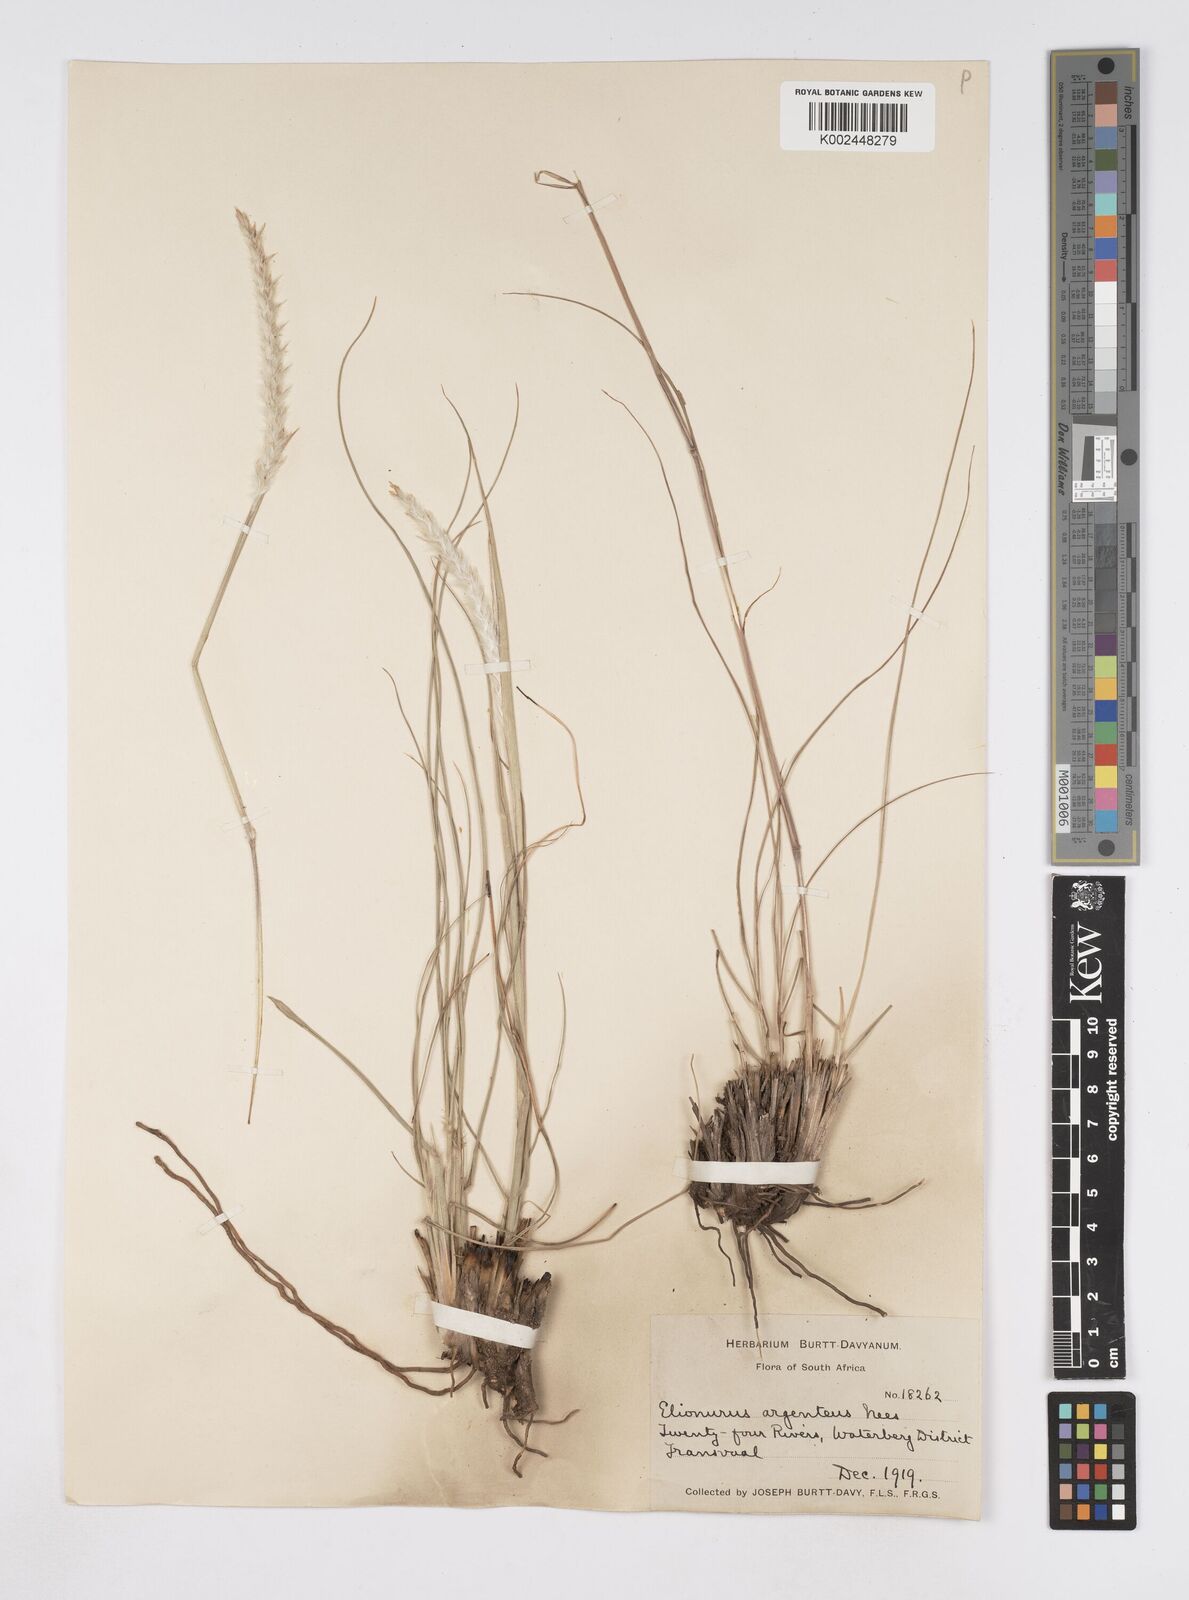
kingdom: Plantae
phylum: Tracheophyta
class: Liliopsida
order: Poales
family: Poaceae
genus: Elionurus
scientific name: Elionurus muticus
